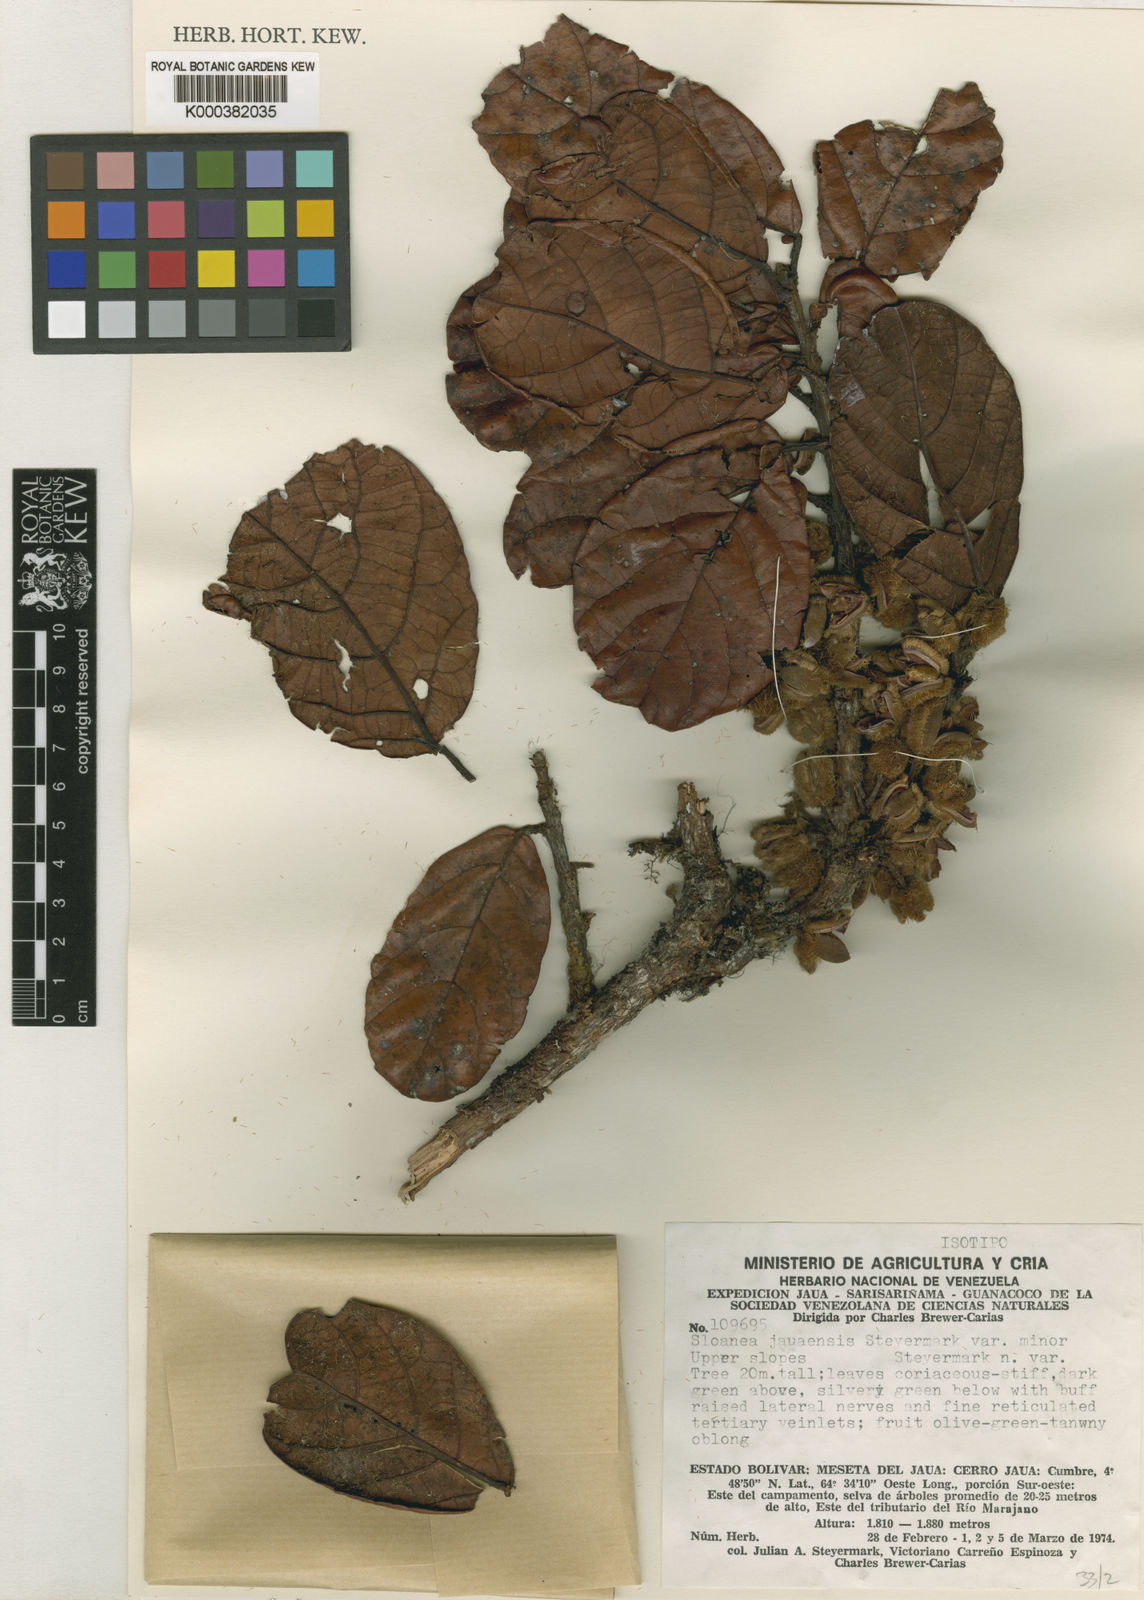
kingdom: Plantae
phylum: Tracheophyta
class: Magnoliopsida
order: Oxalidales
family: Elaeocarpaceae
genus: Sloanea
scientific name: Sloanea steyermarkii
